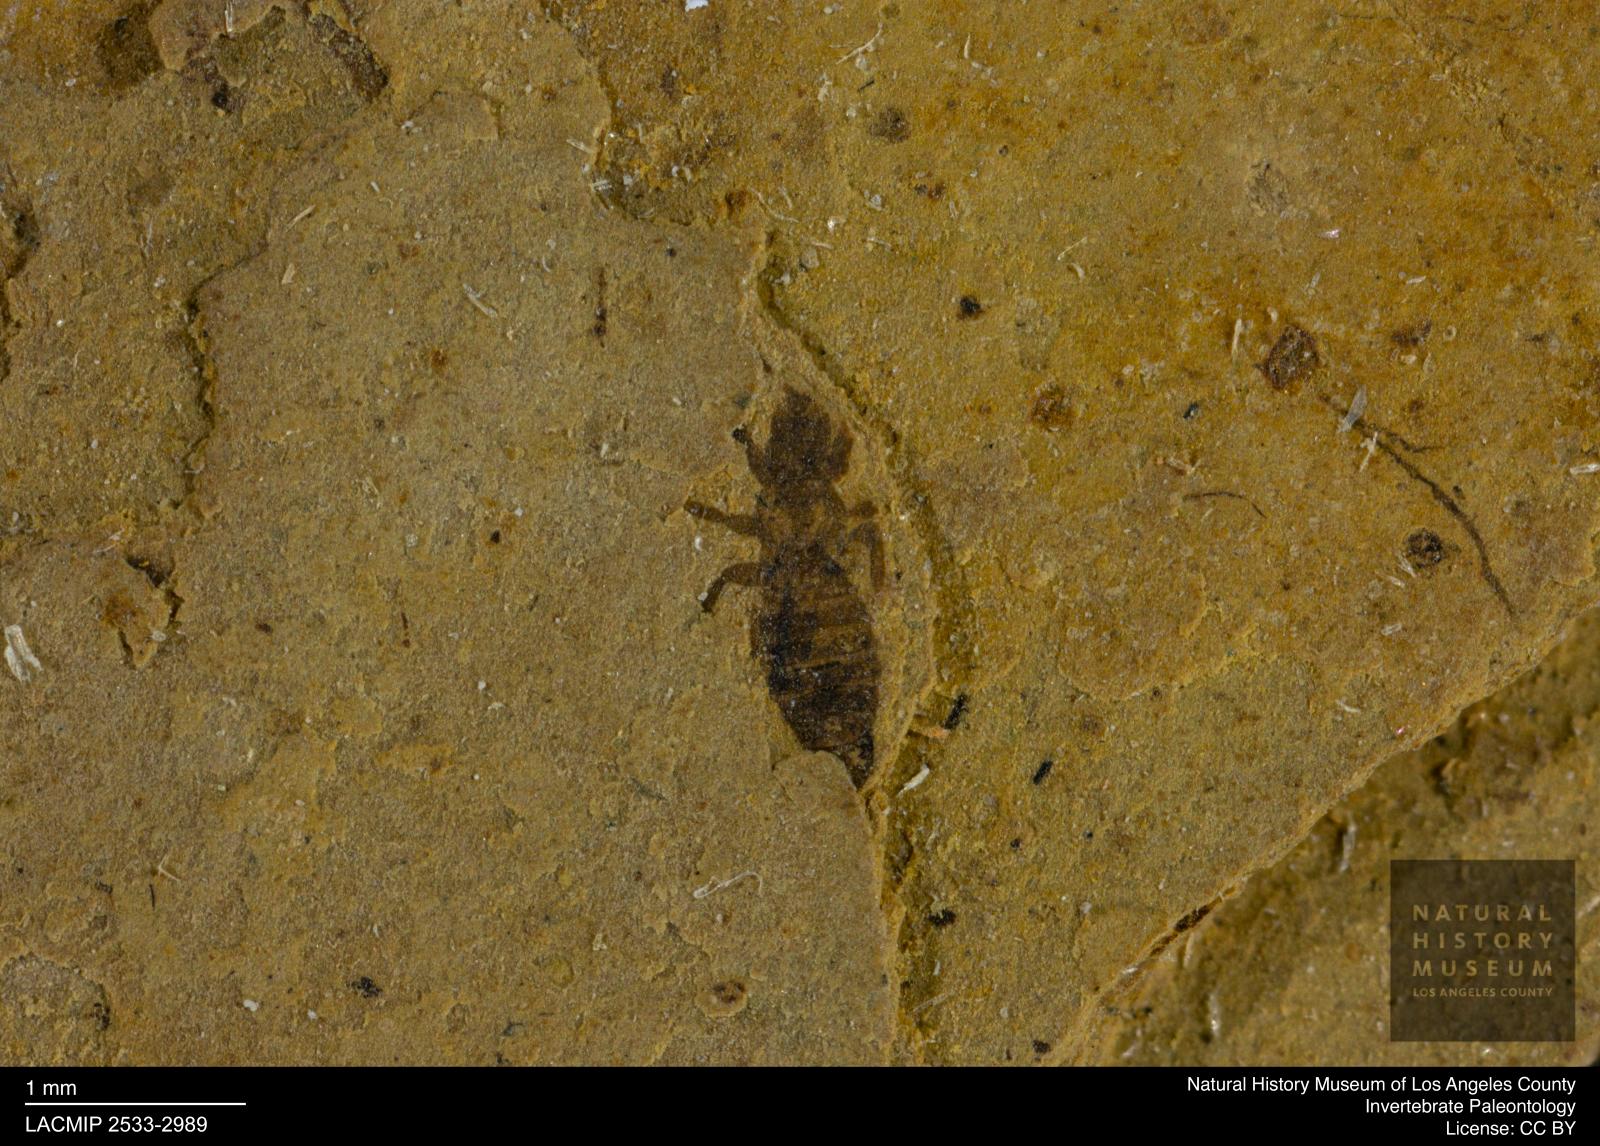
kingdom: Animalia
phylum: Arthropoda
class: Insecta
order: Thysanoptera
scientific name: Thysanoptera
